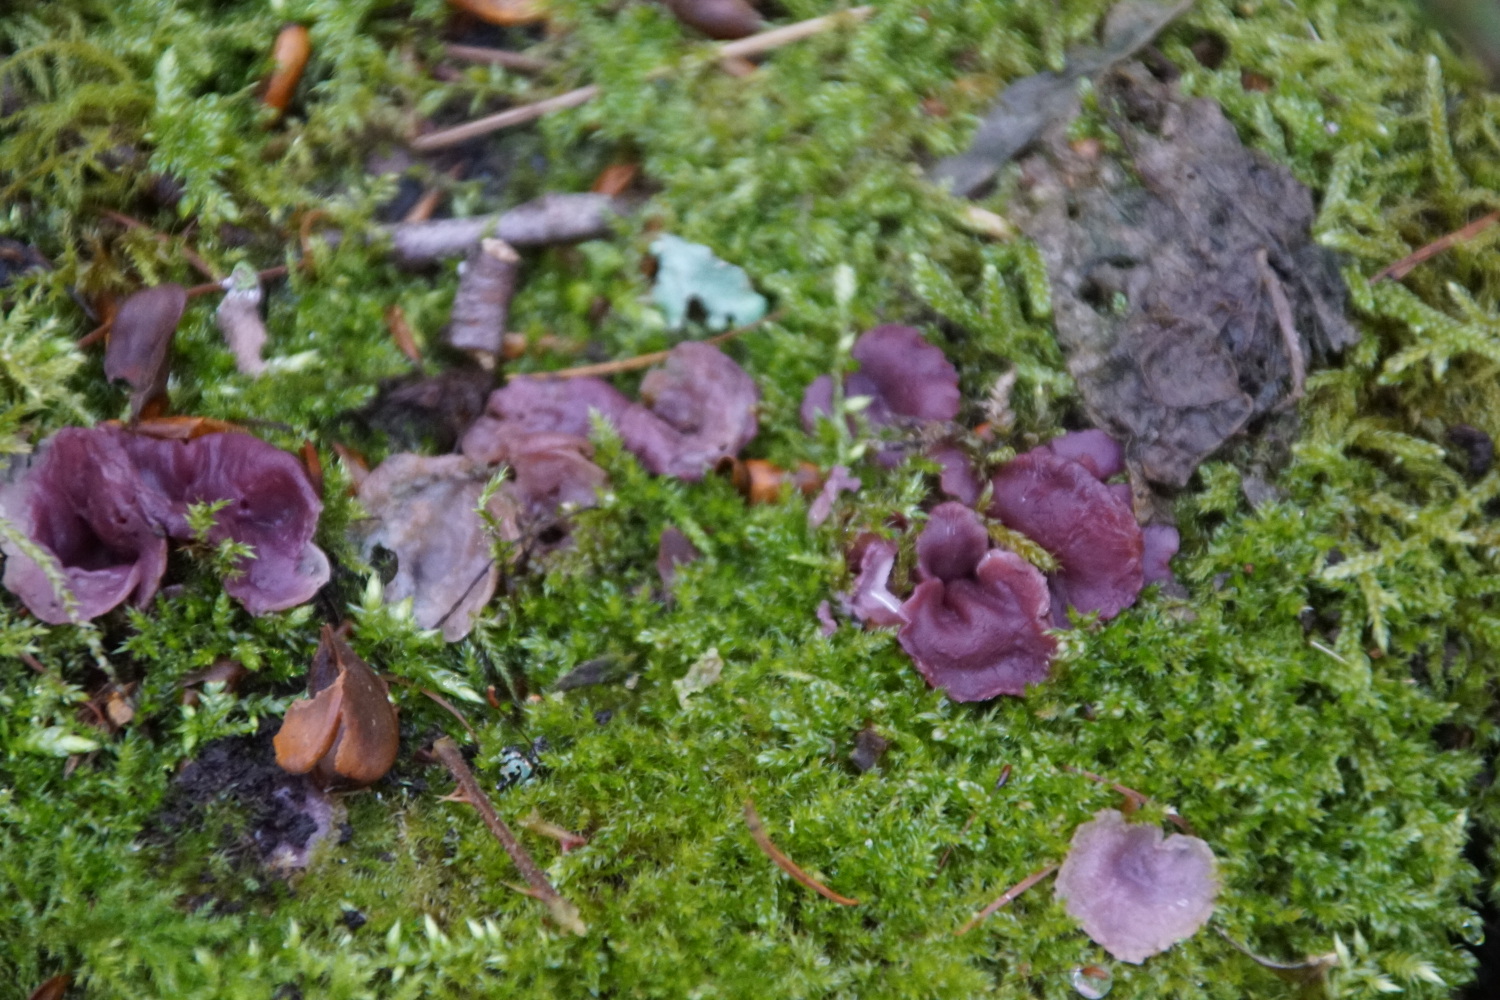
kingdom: Fungi
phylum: Ascomycota
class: Leotiomycetes
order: Helotiales
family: Gelatinodiscaceae
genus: Ascocoryne
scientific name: Ascocoryne cylichnium
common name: stor sejskive
